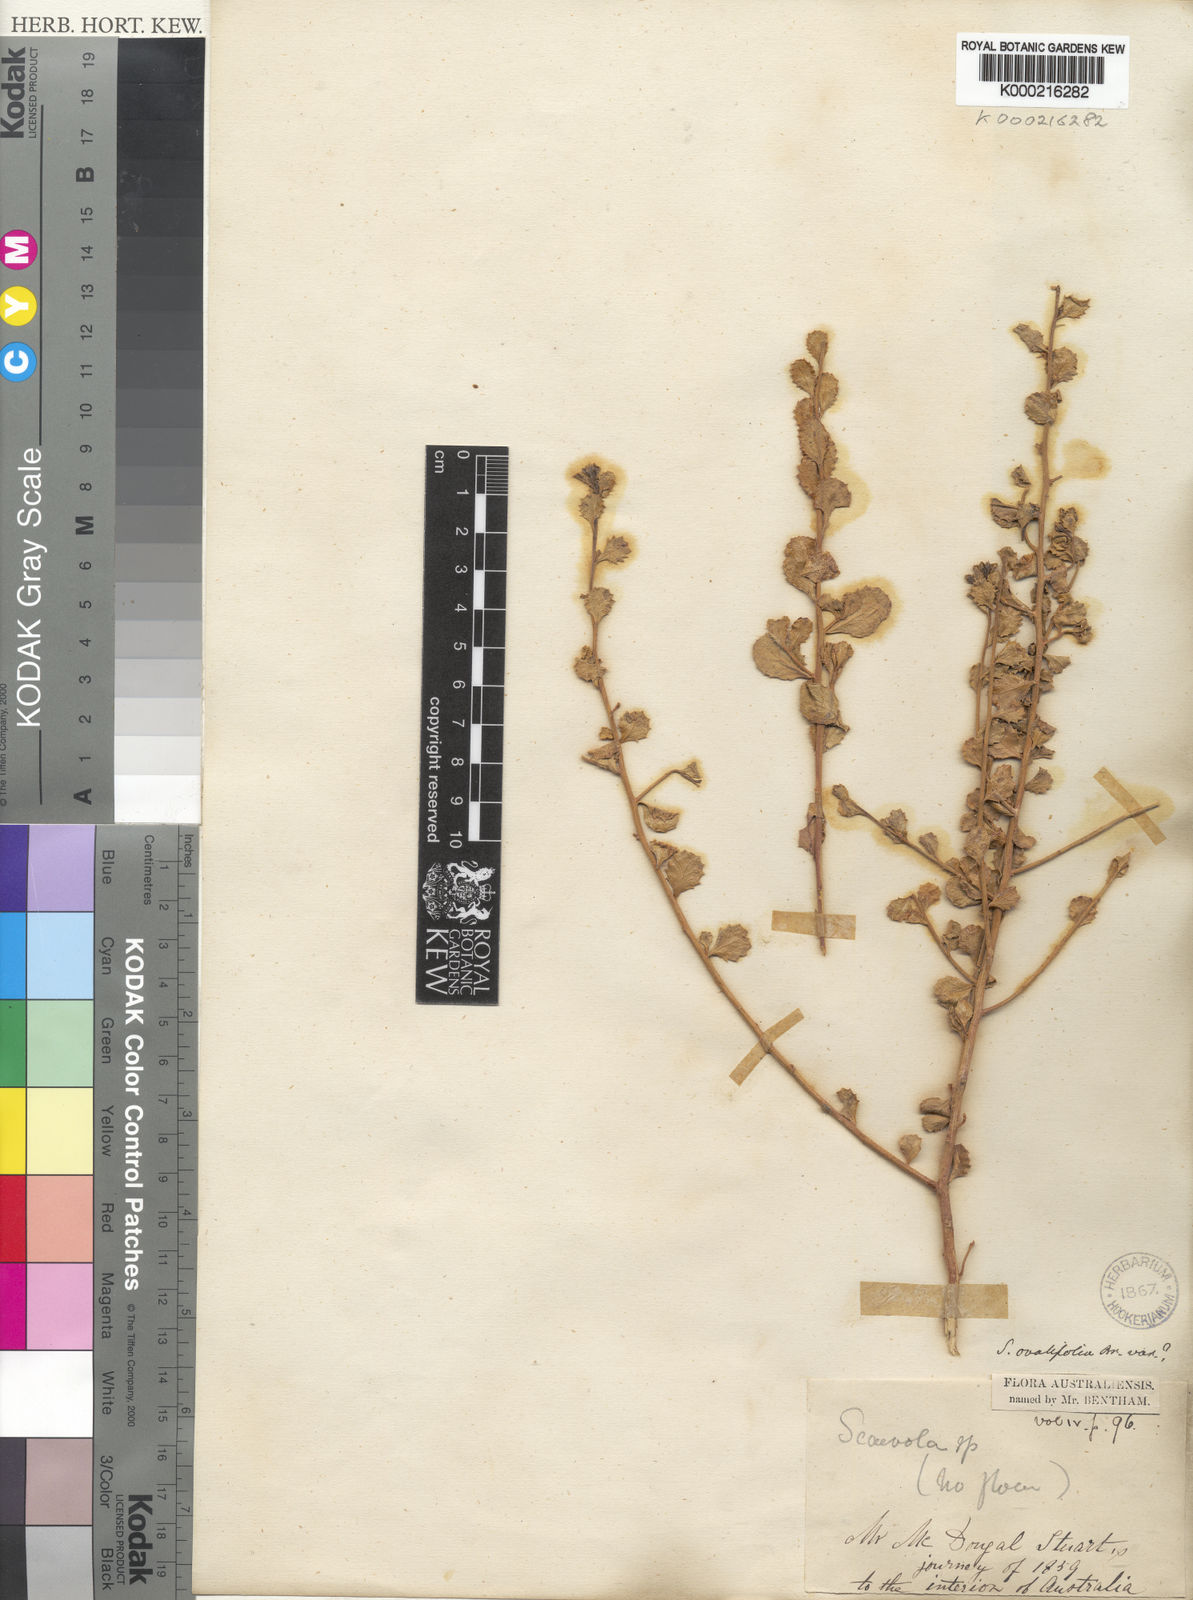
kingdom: Plantae
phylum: Tracheophyta
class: Magnoliopsida
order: Asterales
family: Goodeniaceae
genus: Scaevola
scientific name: Scaevola ovalifolia
